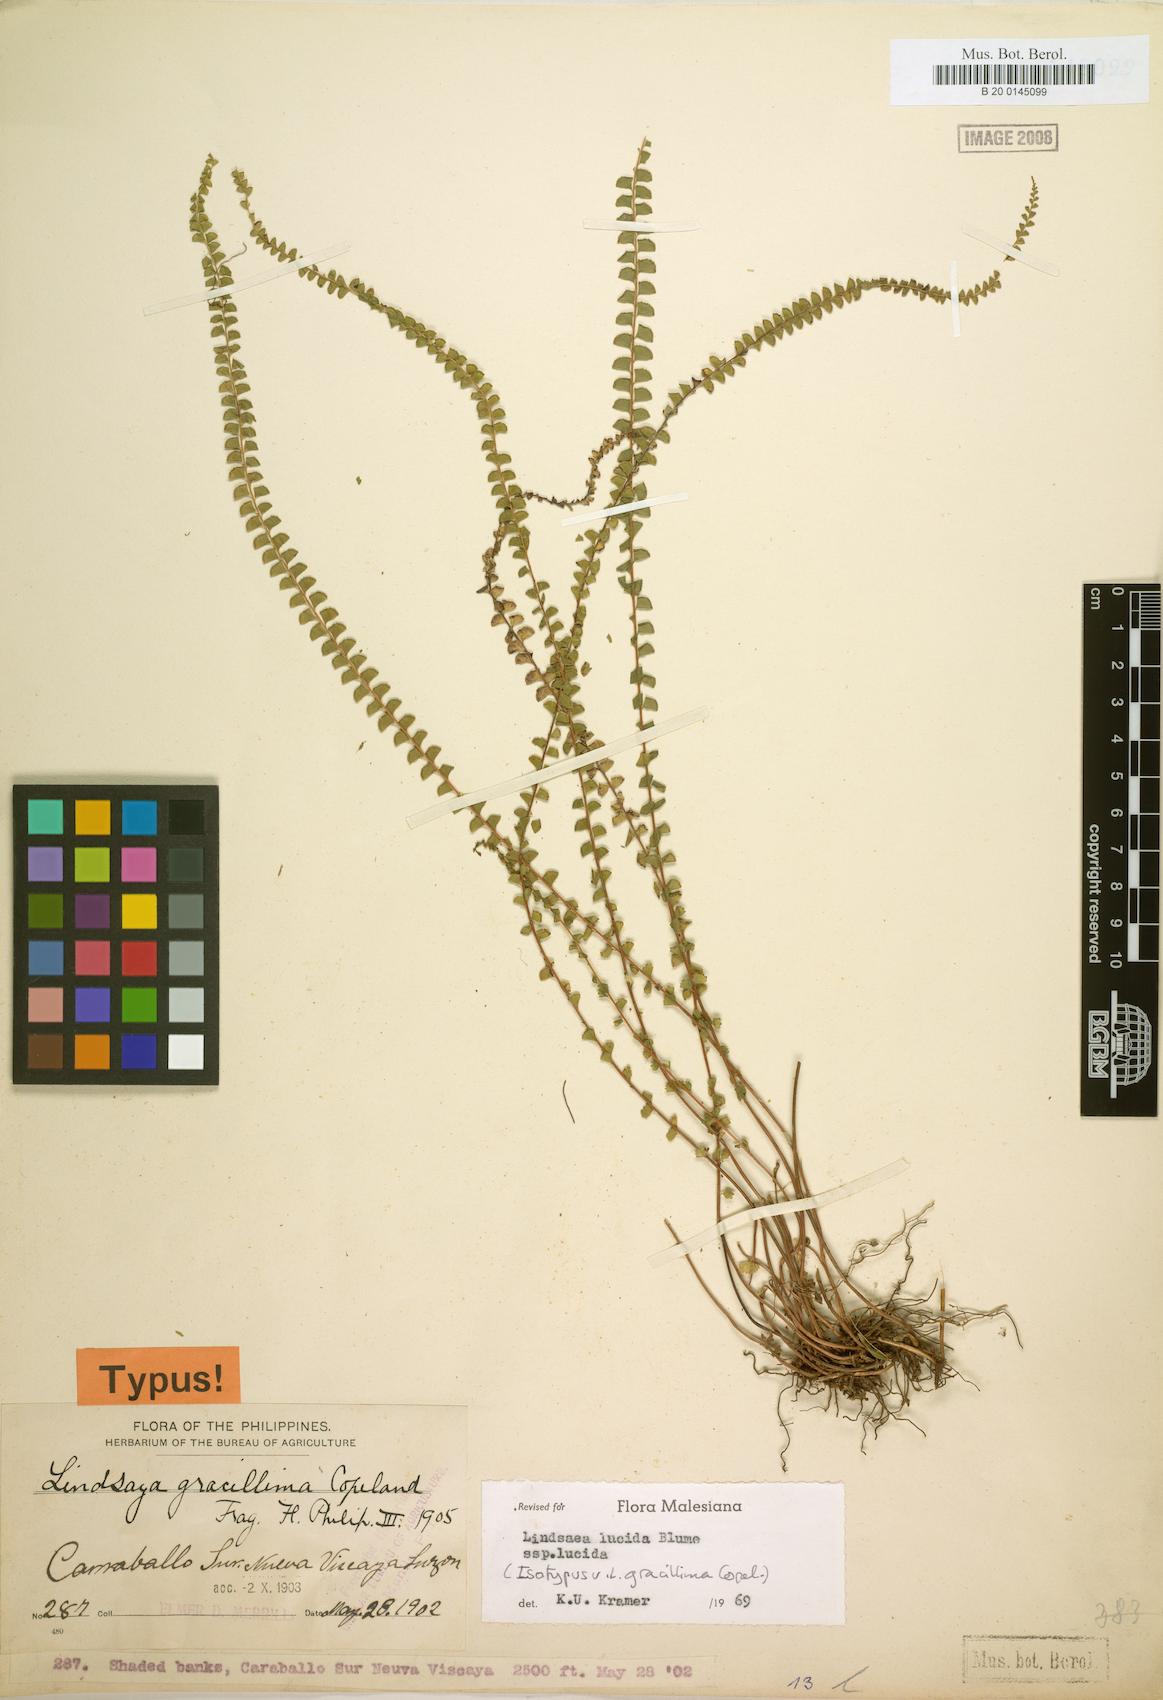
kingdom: Plantae
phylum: Tracheophyta
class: Polypodiopsida
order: Polypodiales
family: Lindsaeaceae
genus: Lindsaea
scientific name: Lindsaea lucida
